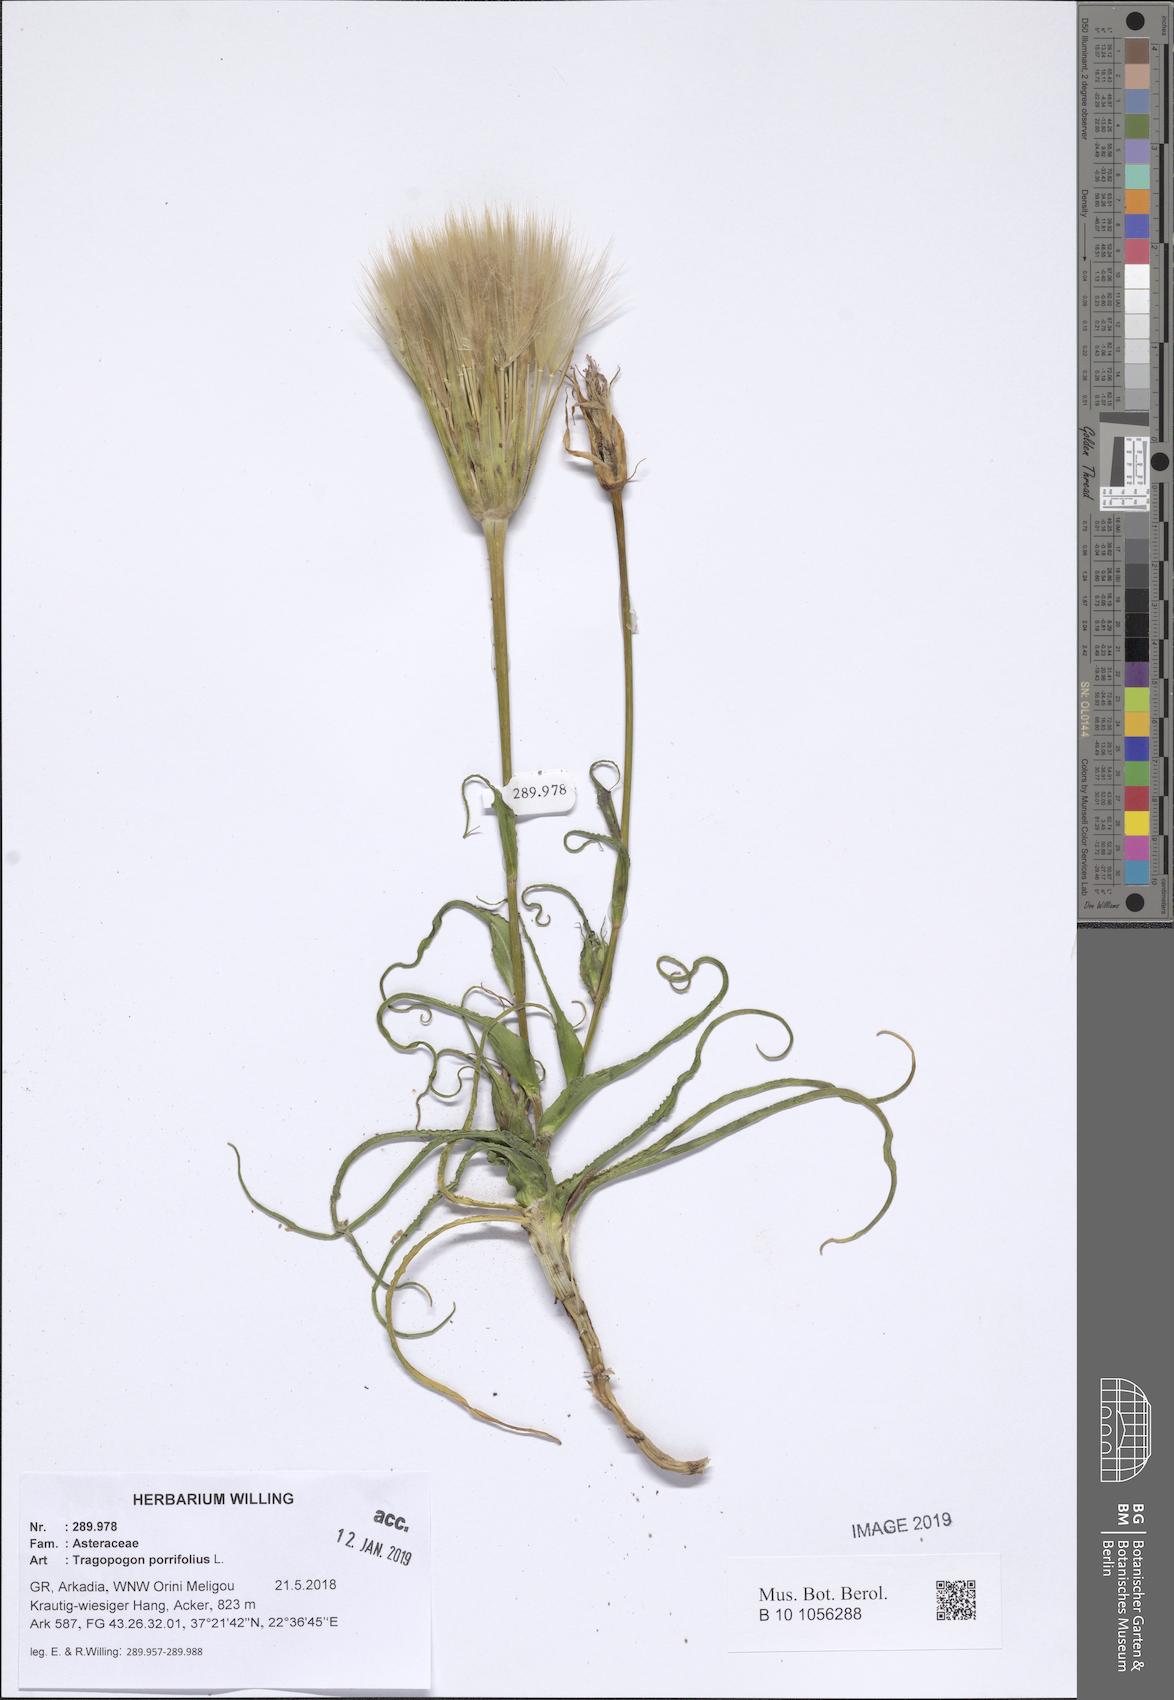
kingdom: Plantae
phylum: Tracheophyta
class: Magnoliopsida
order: Asterales
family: Asteraceae
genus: Tragopogon
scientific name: Tragopogon porrifolius
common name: Salsify
